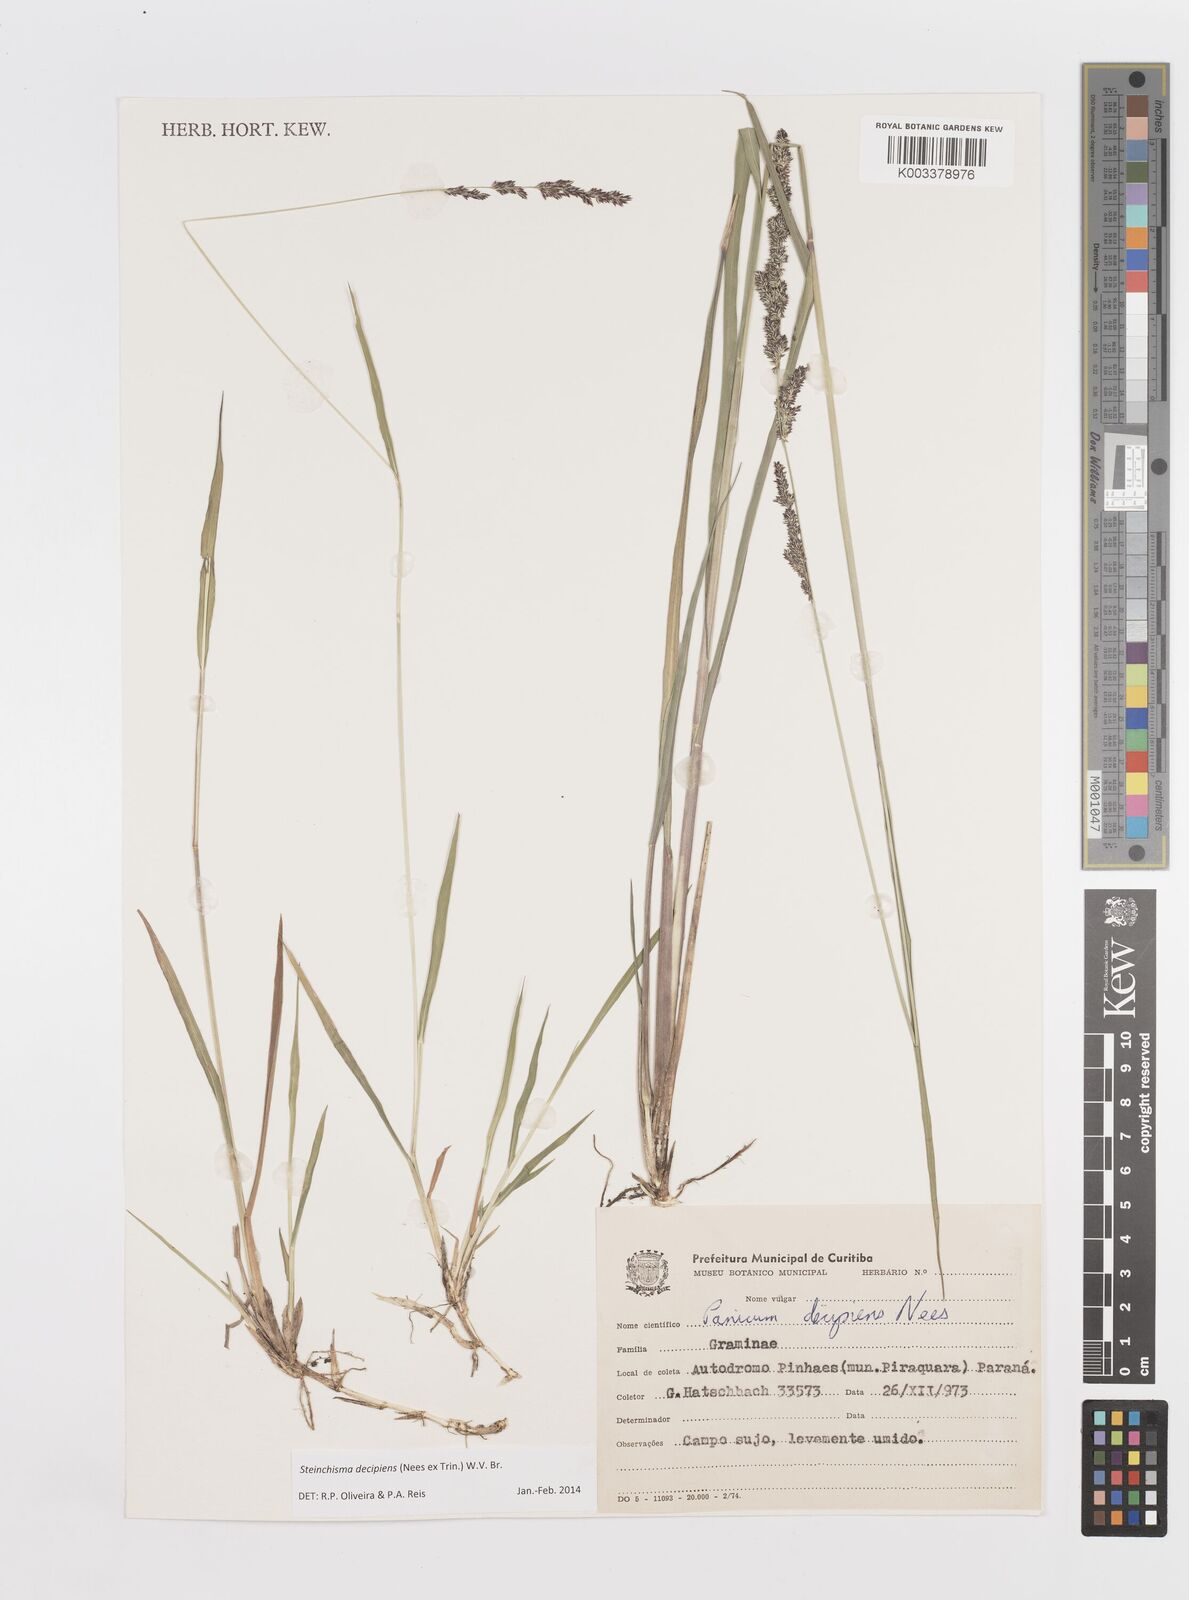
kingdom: Plantae
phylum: Tracheophyta
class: Liliopsida
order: Poales
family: Poaceae
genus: Steinchisma
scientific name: Steinchisma decipiens
